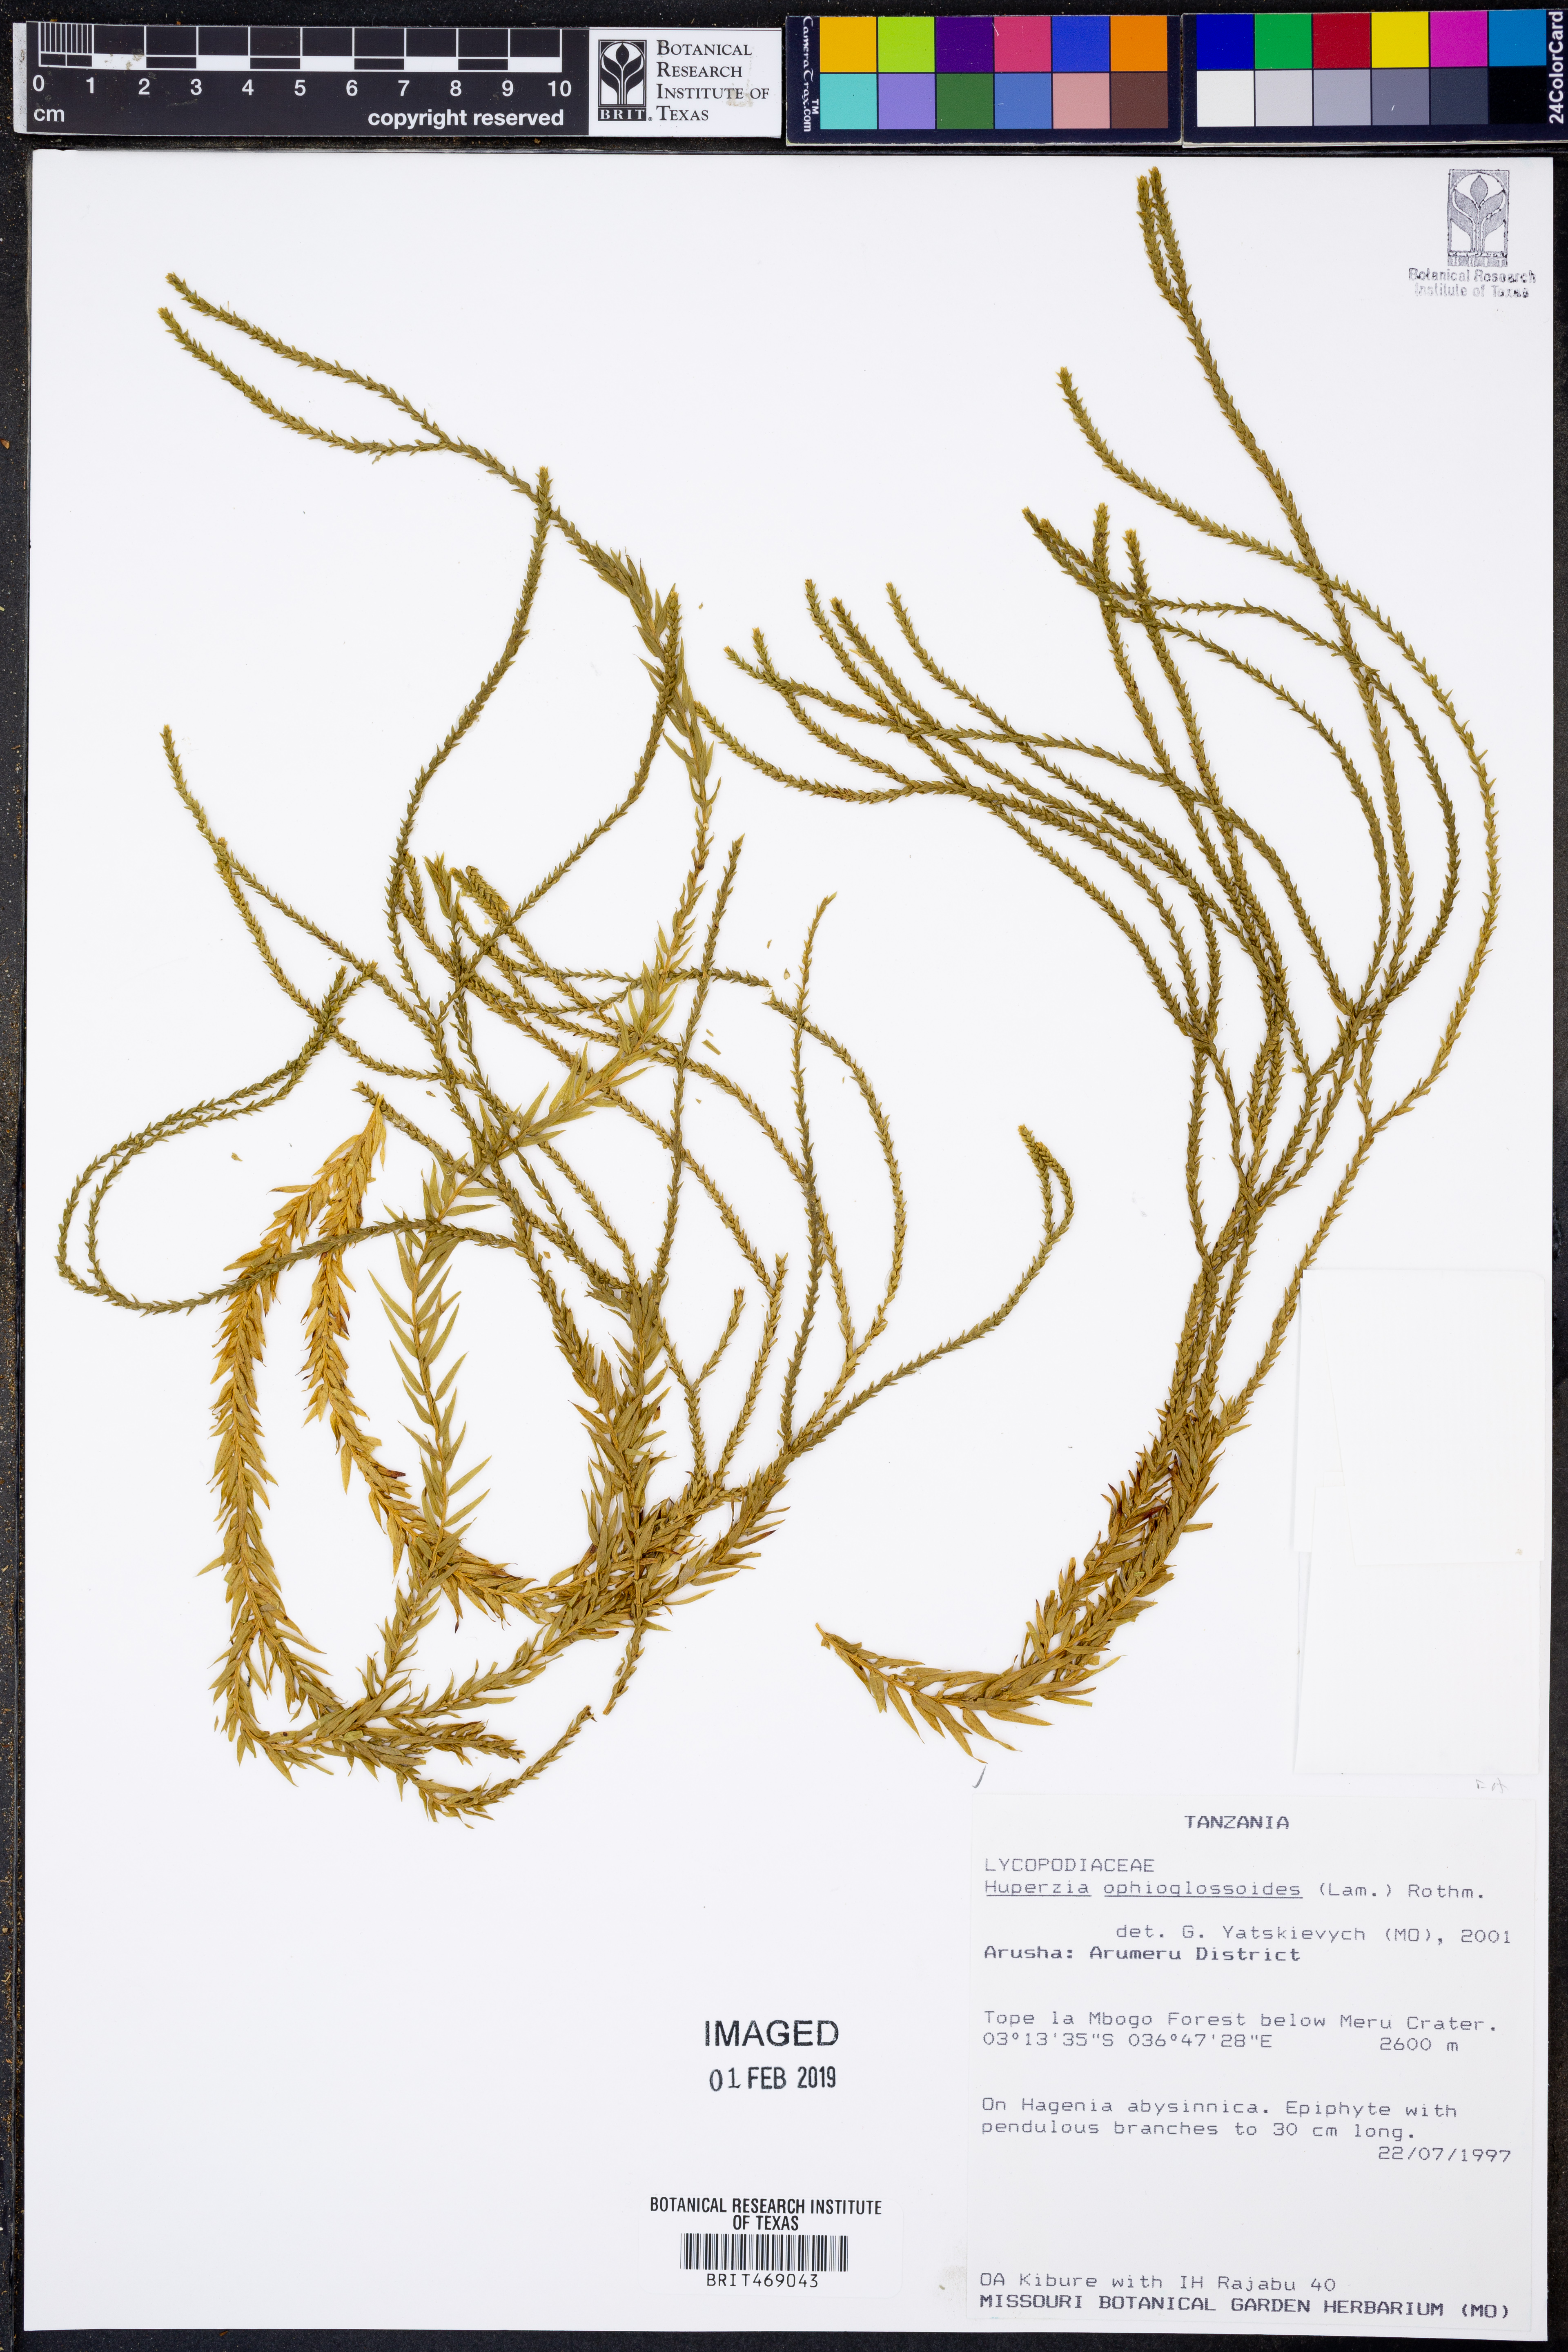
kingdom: Plantae
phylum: Tracheophyta
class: Lycopodiopsida
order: Lycopodiales
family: Lycopodiaceae
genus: Phlegmariurus
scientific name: Phlegmariurus ophioglossoides
